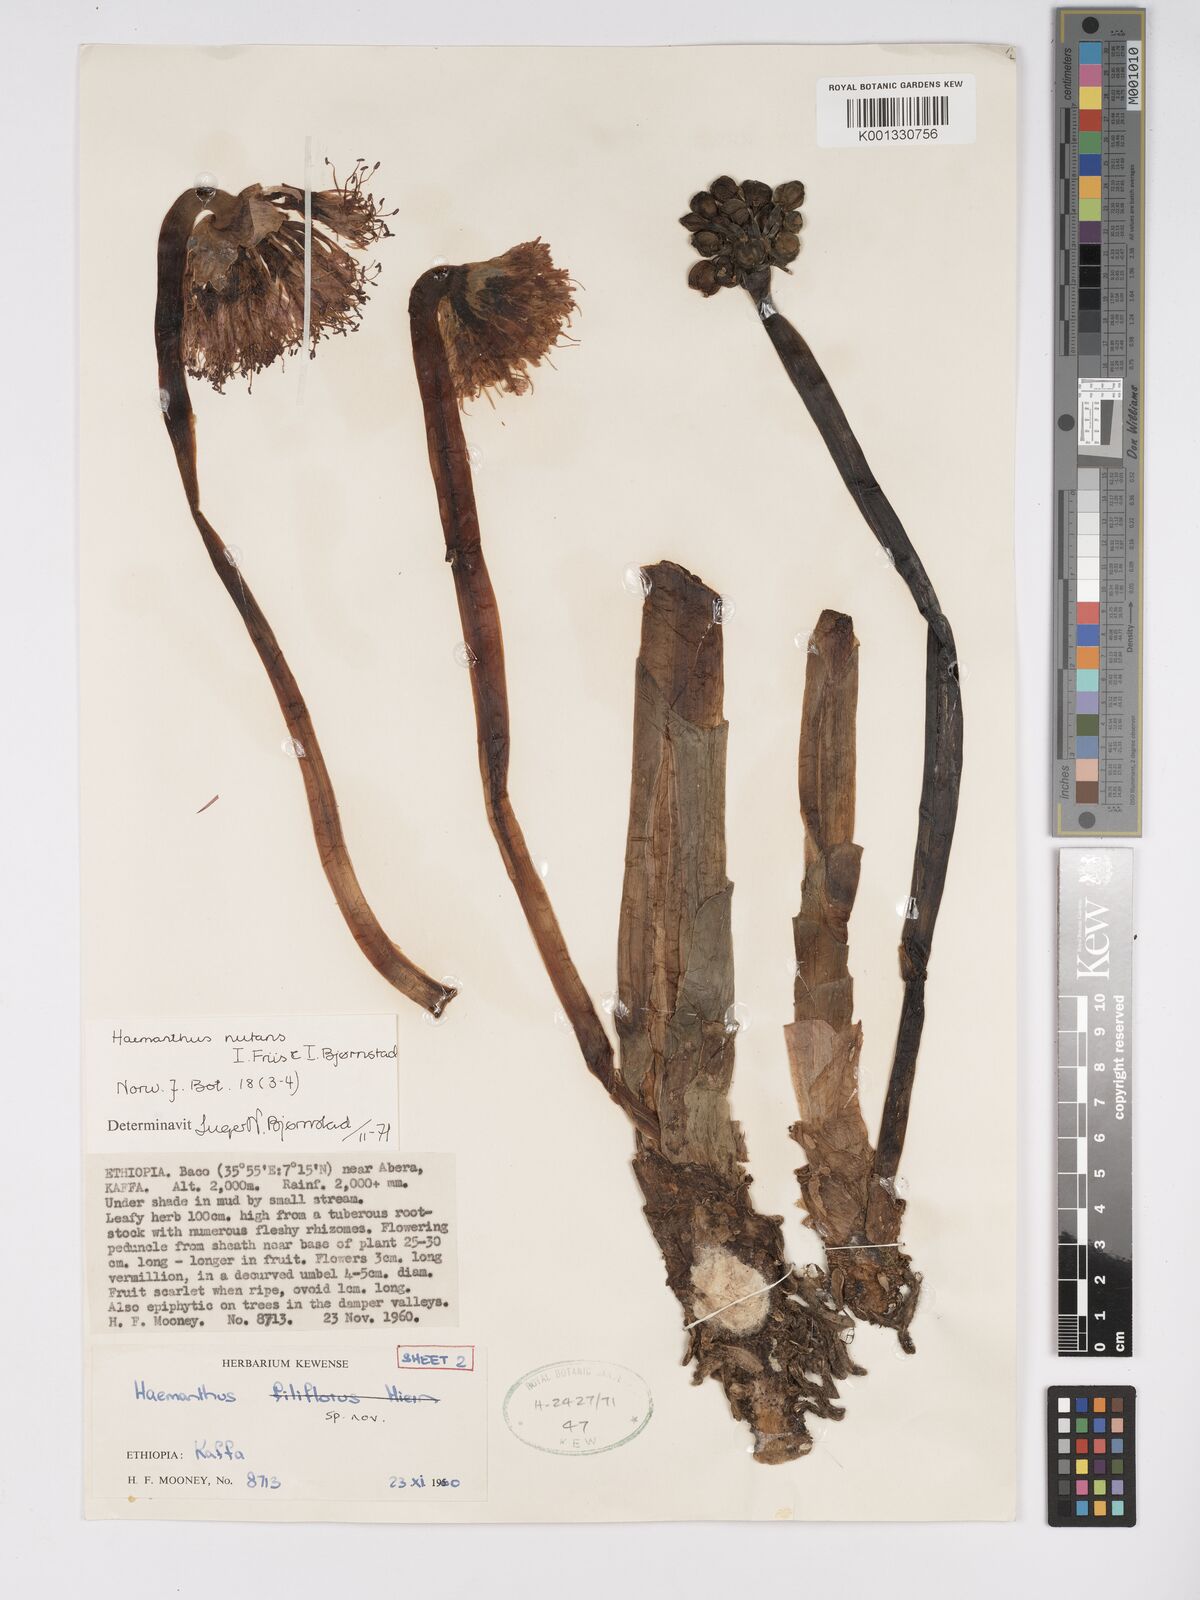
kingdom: Plantae
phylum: Tracheophyta
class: Liliopsida
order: Asparagales
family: Amaryllidaceae
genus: Scadoxus
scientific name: Scadoxus nutans
